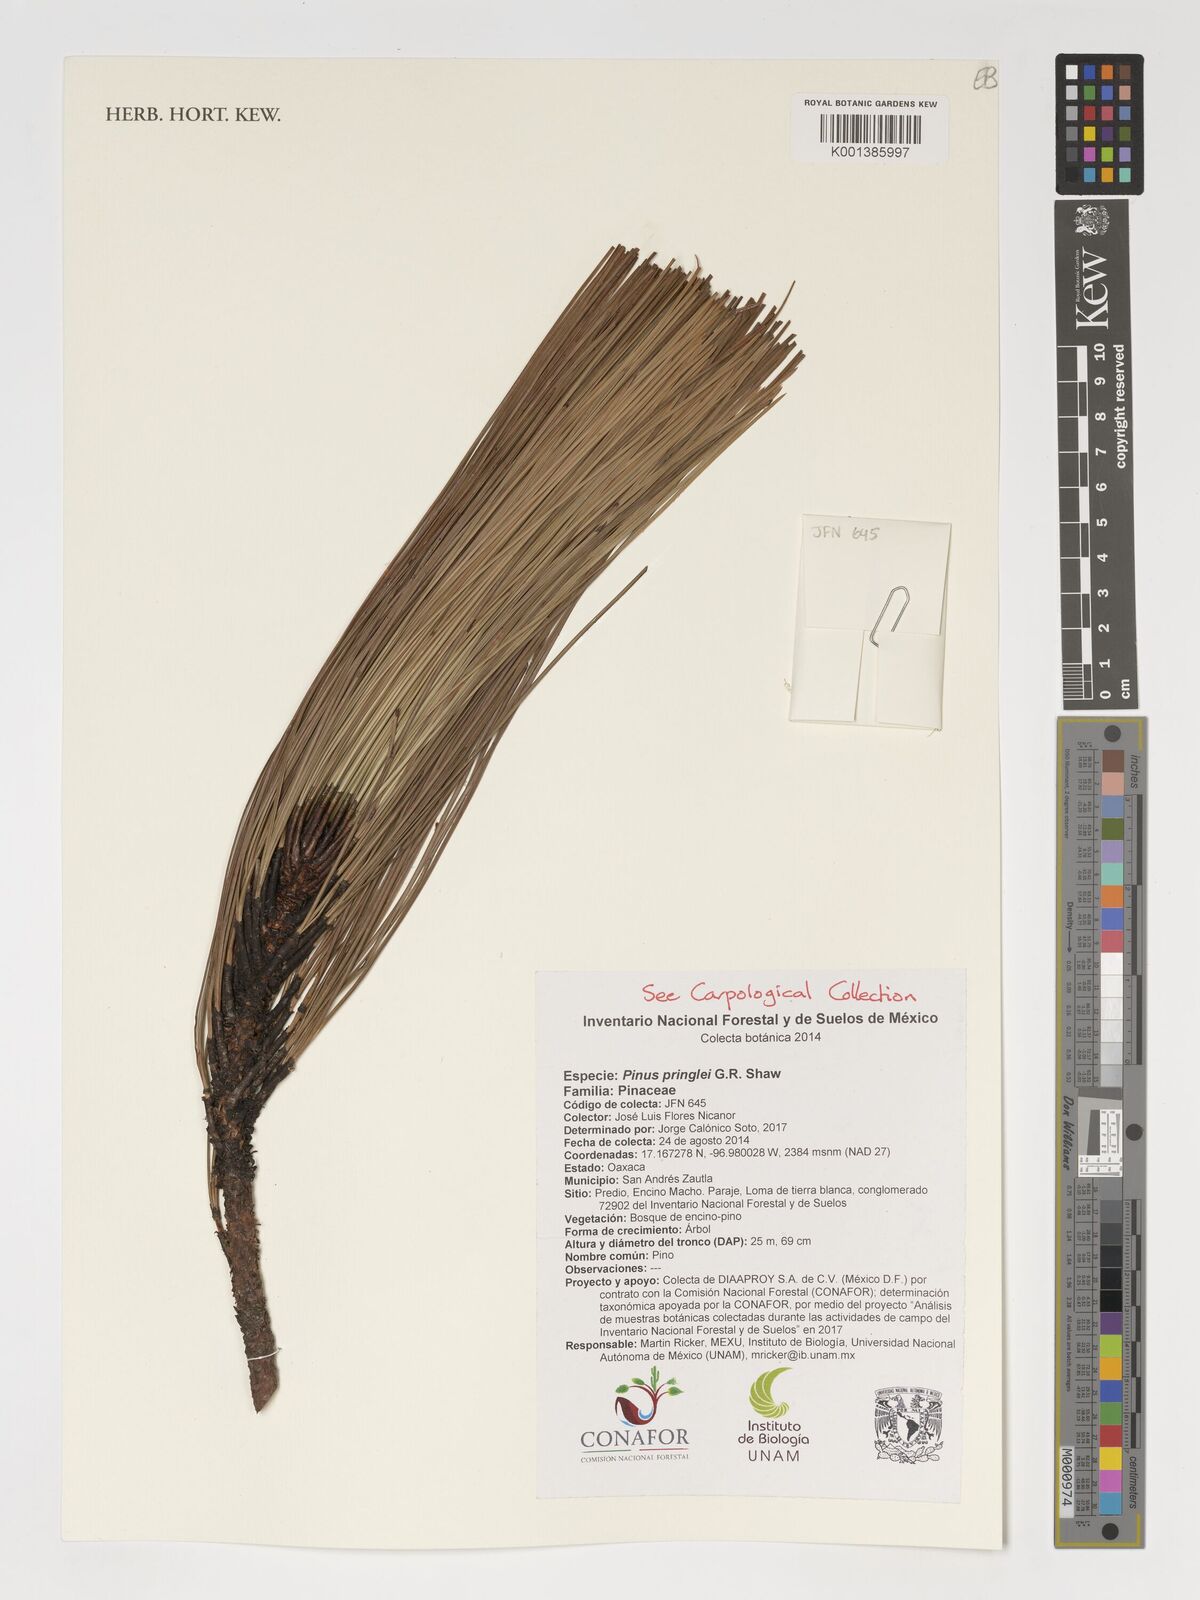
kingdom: Plantae
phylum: Tracheophyta
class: Pinopsida
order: Pinales
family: Pinaceae
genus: Pinus
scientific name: Pinus pringlei
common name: Pringle's pine
